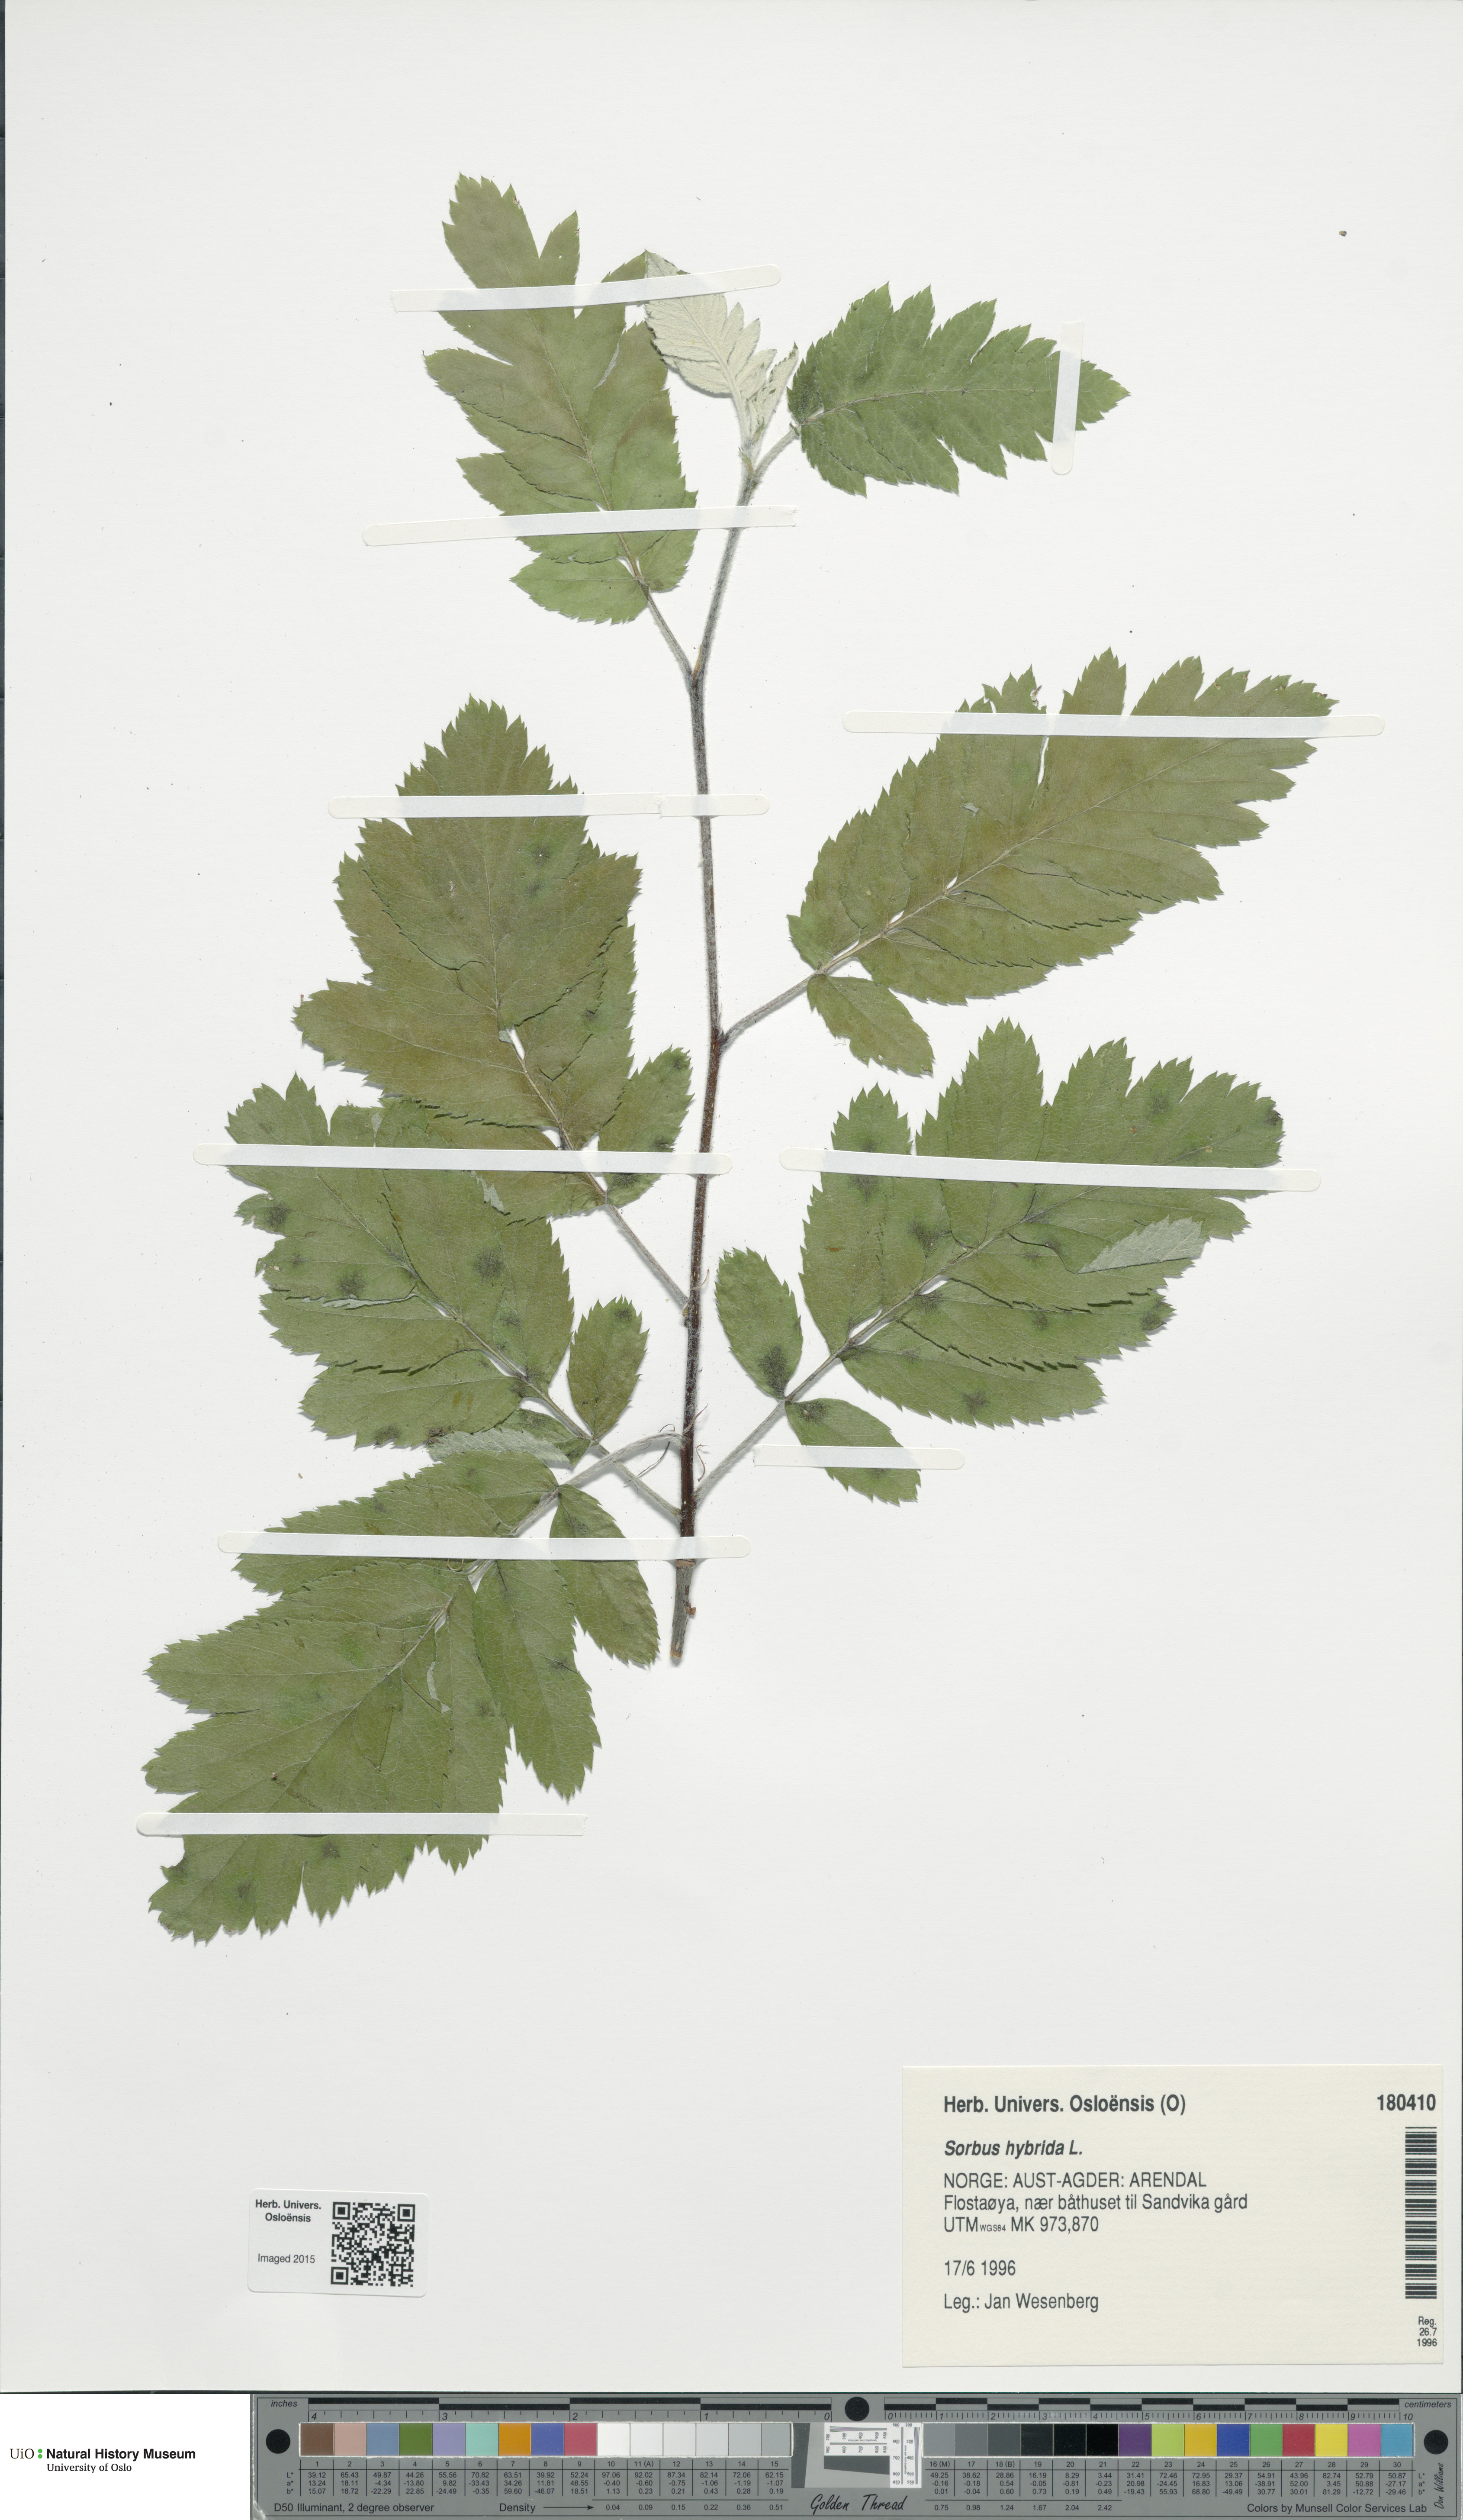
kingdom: Plantae
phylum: Tracheophyta
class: Magnoliopsida
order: Rosales
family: Rosaceae
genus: Hedlundia
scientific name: Hedlundia hybrida
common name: Swedish service-tree
